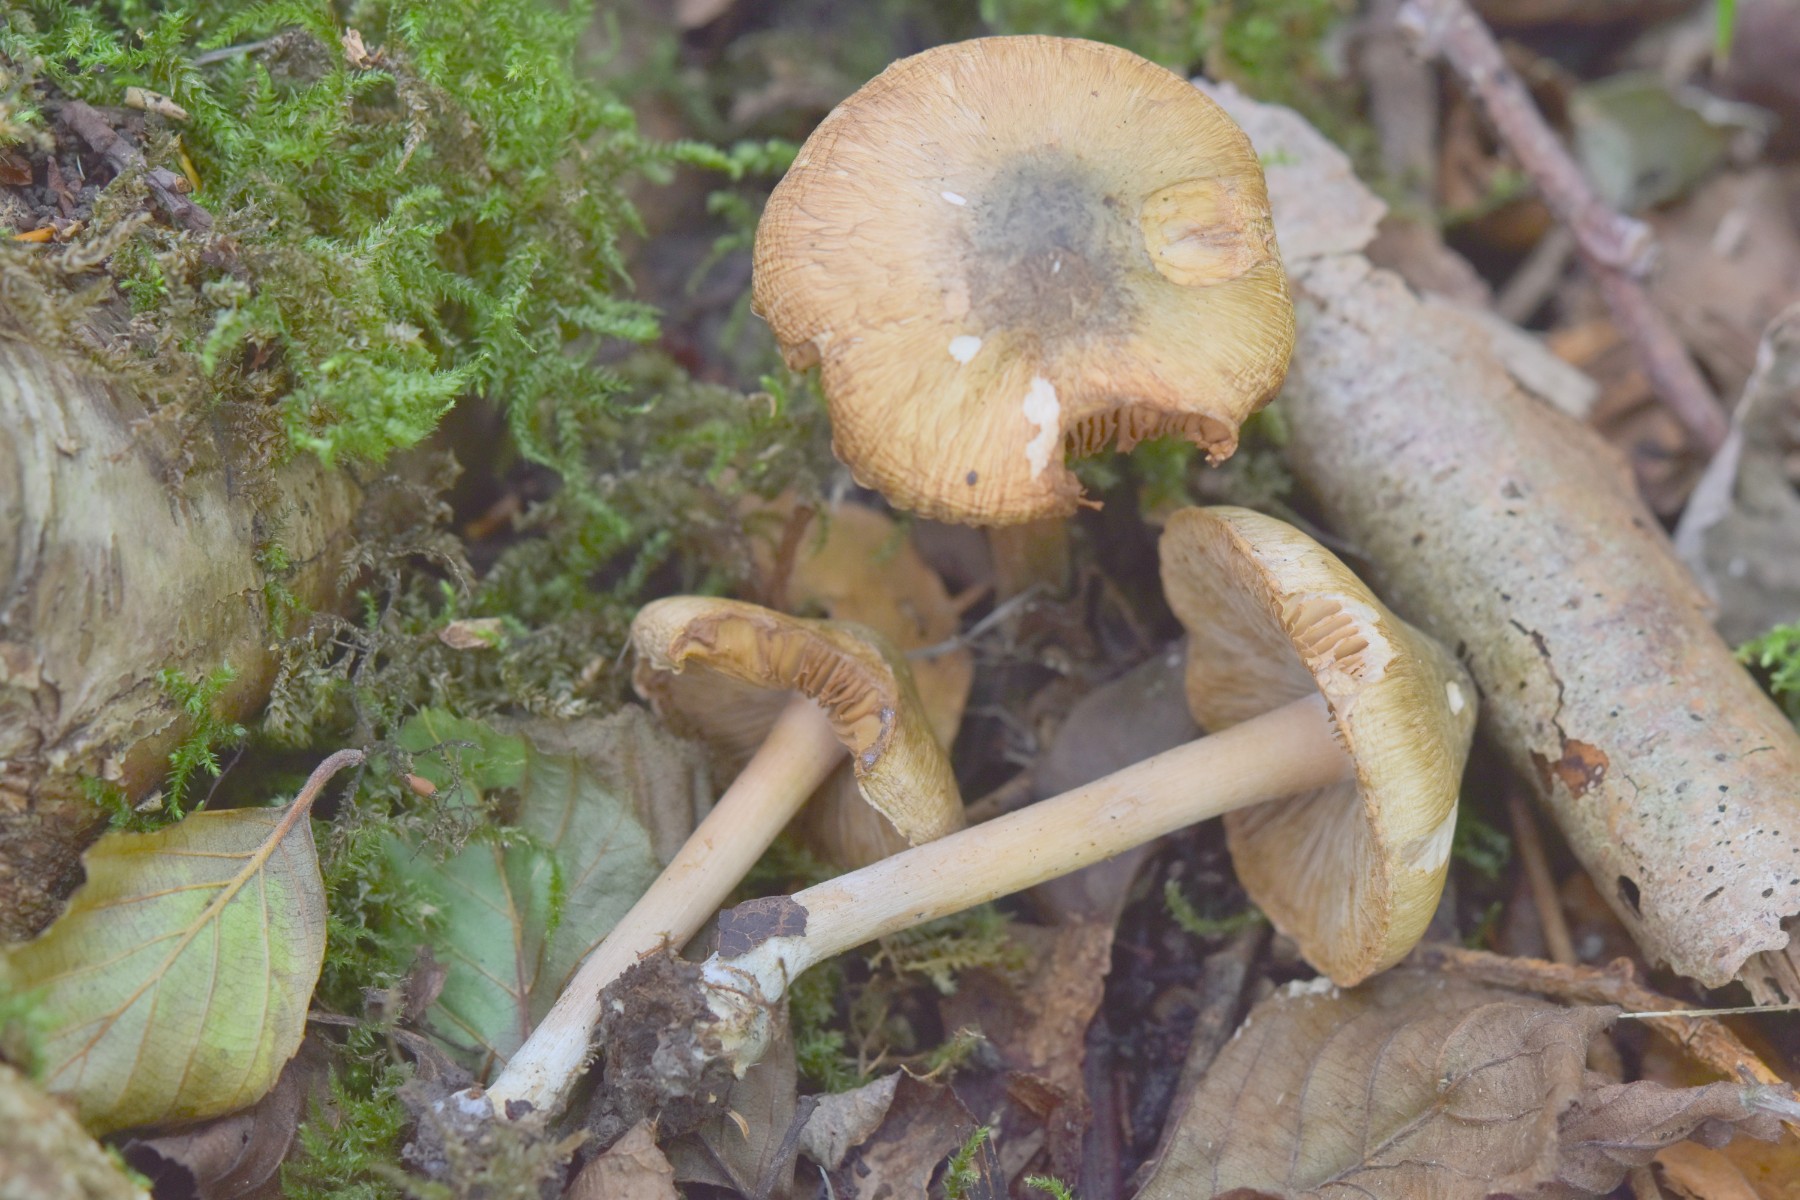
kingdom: Fungi
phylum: Basidiomycota
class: Agaricomycetes
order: Agaricales
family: Inocybaceae
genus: Inocybe
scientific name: Inocybe corydalina
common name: grønpuklet trævlhat
